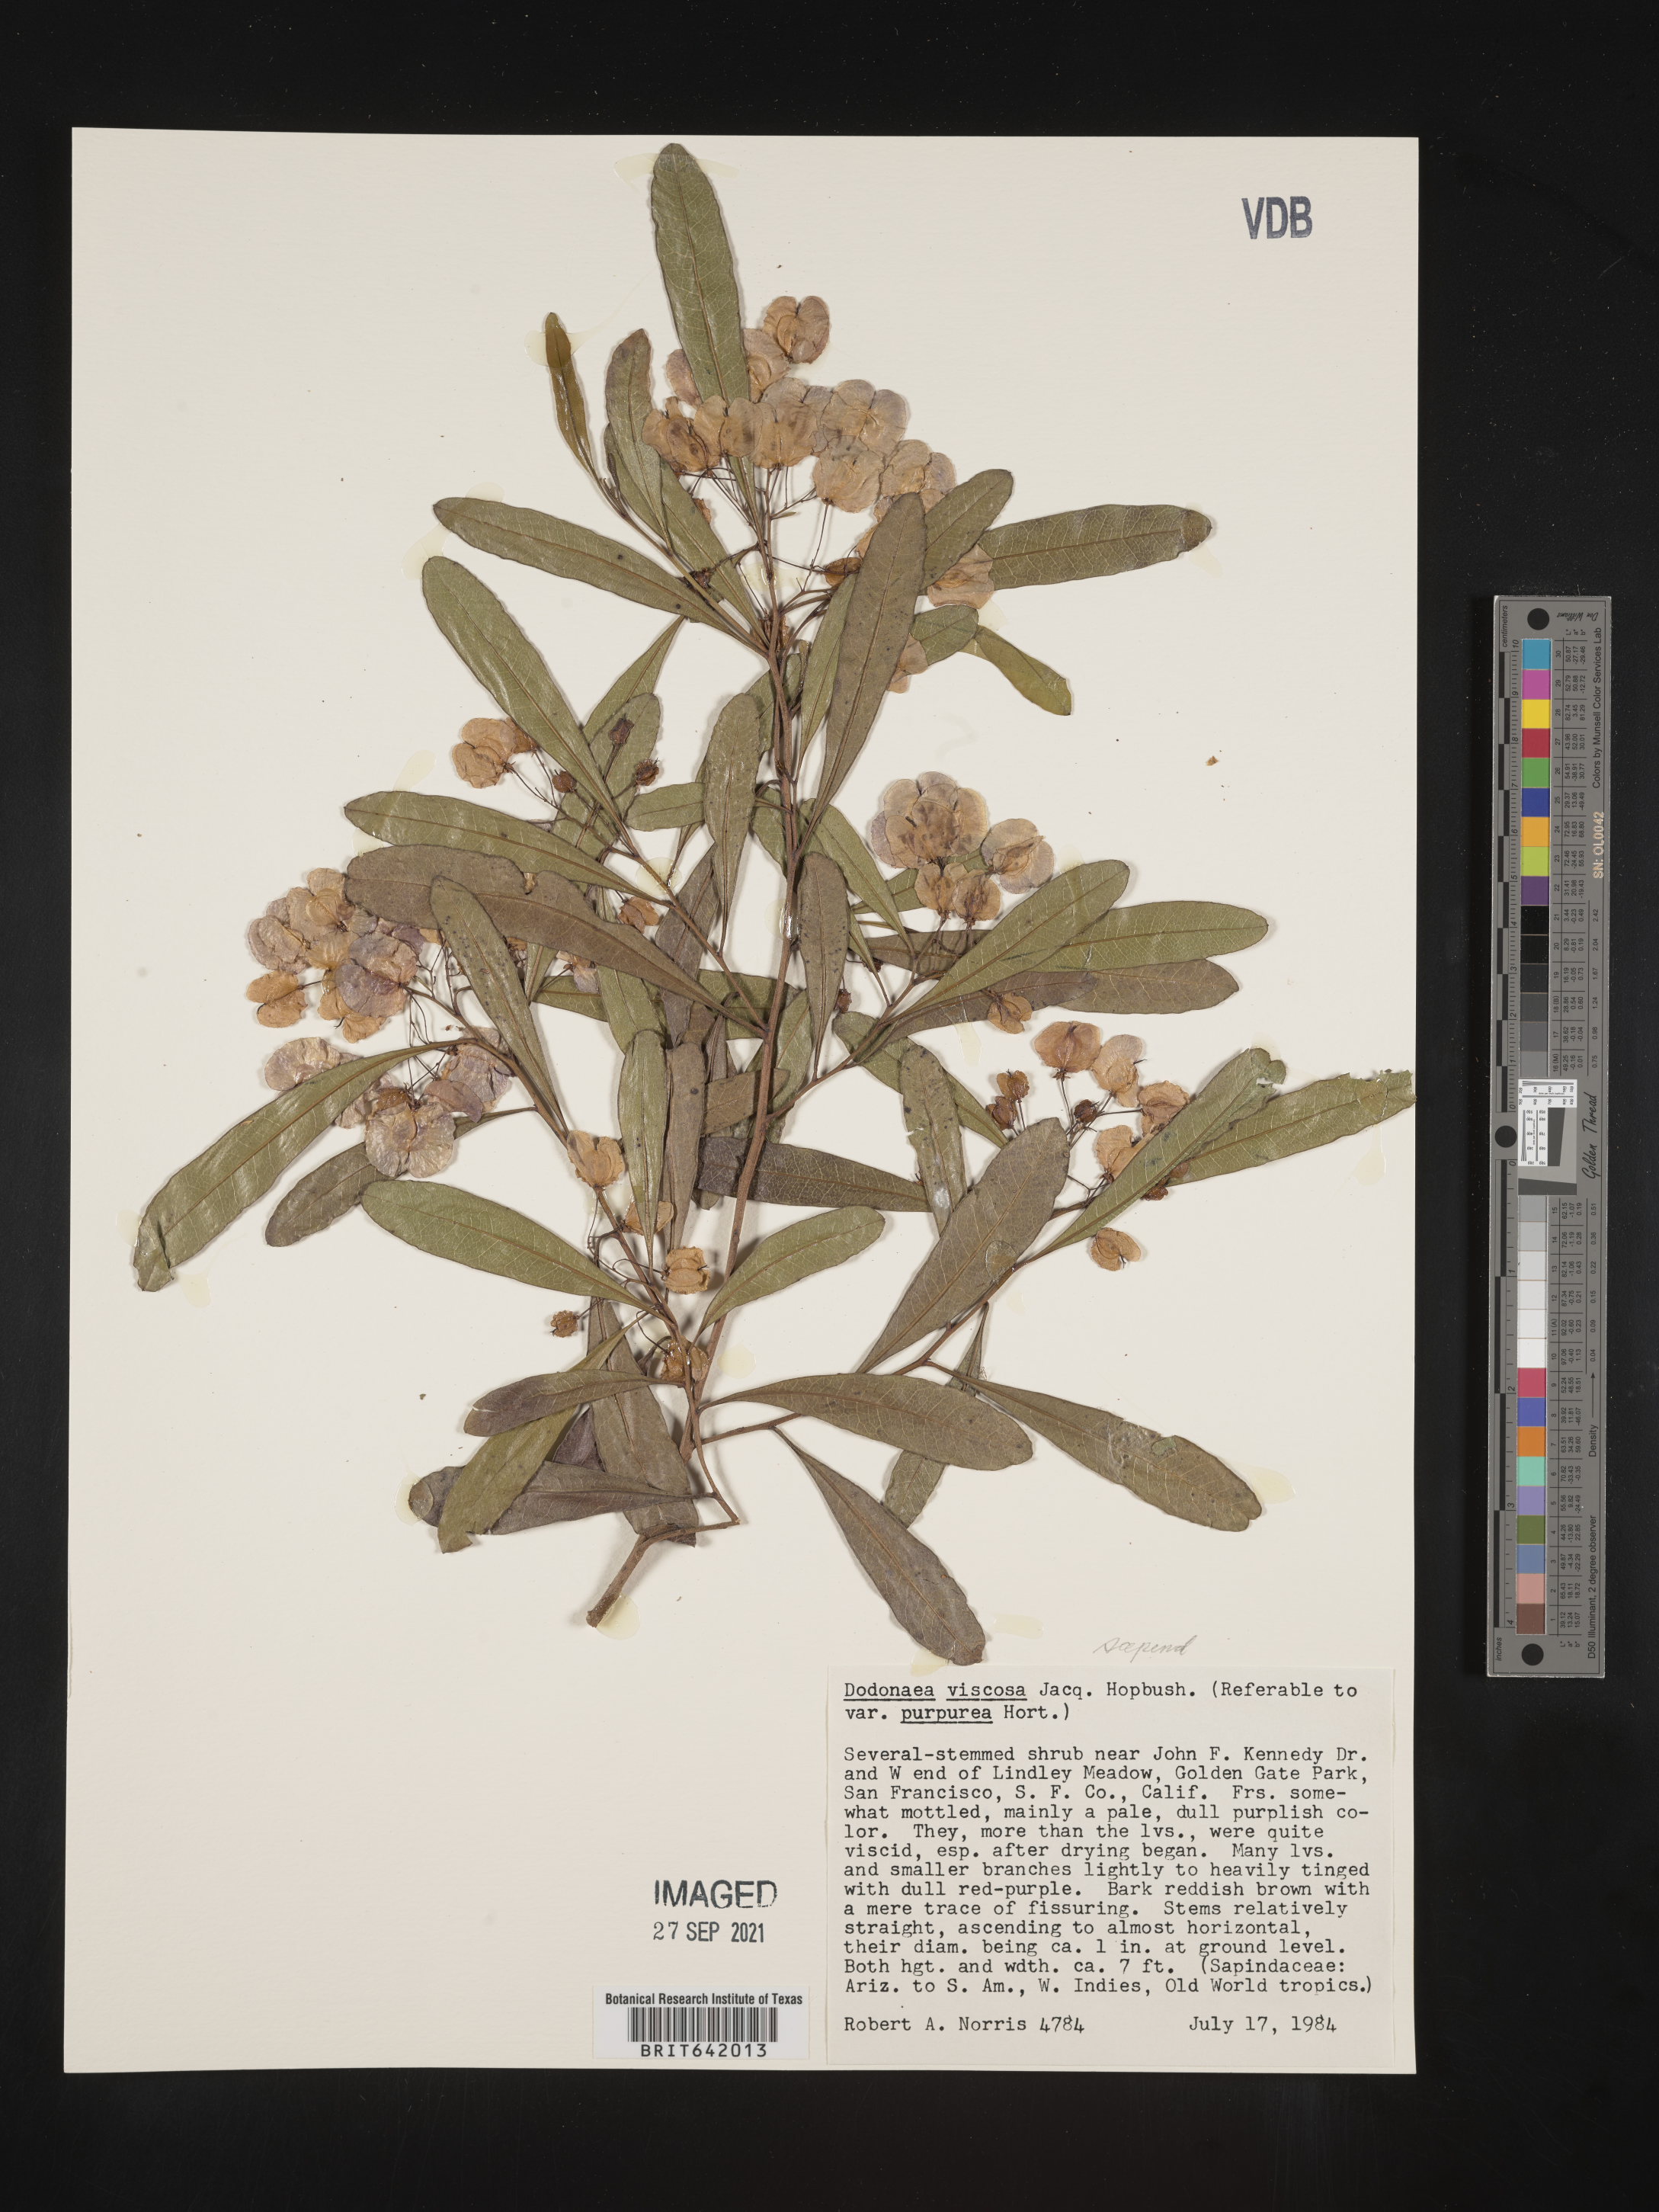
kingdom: Plantae
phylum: Tracheophyta
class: Magnoliopsida
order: Sapindales
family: Sapindaceae
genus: Dodonaea
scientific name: Dodonaea
